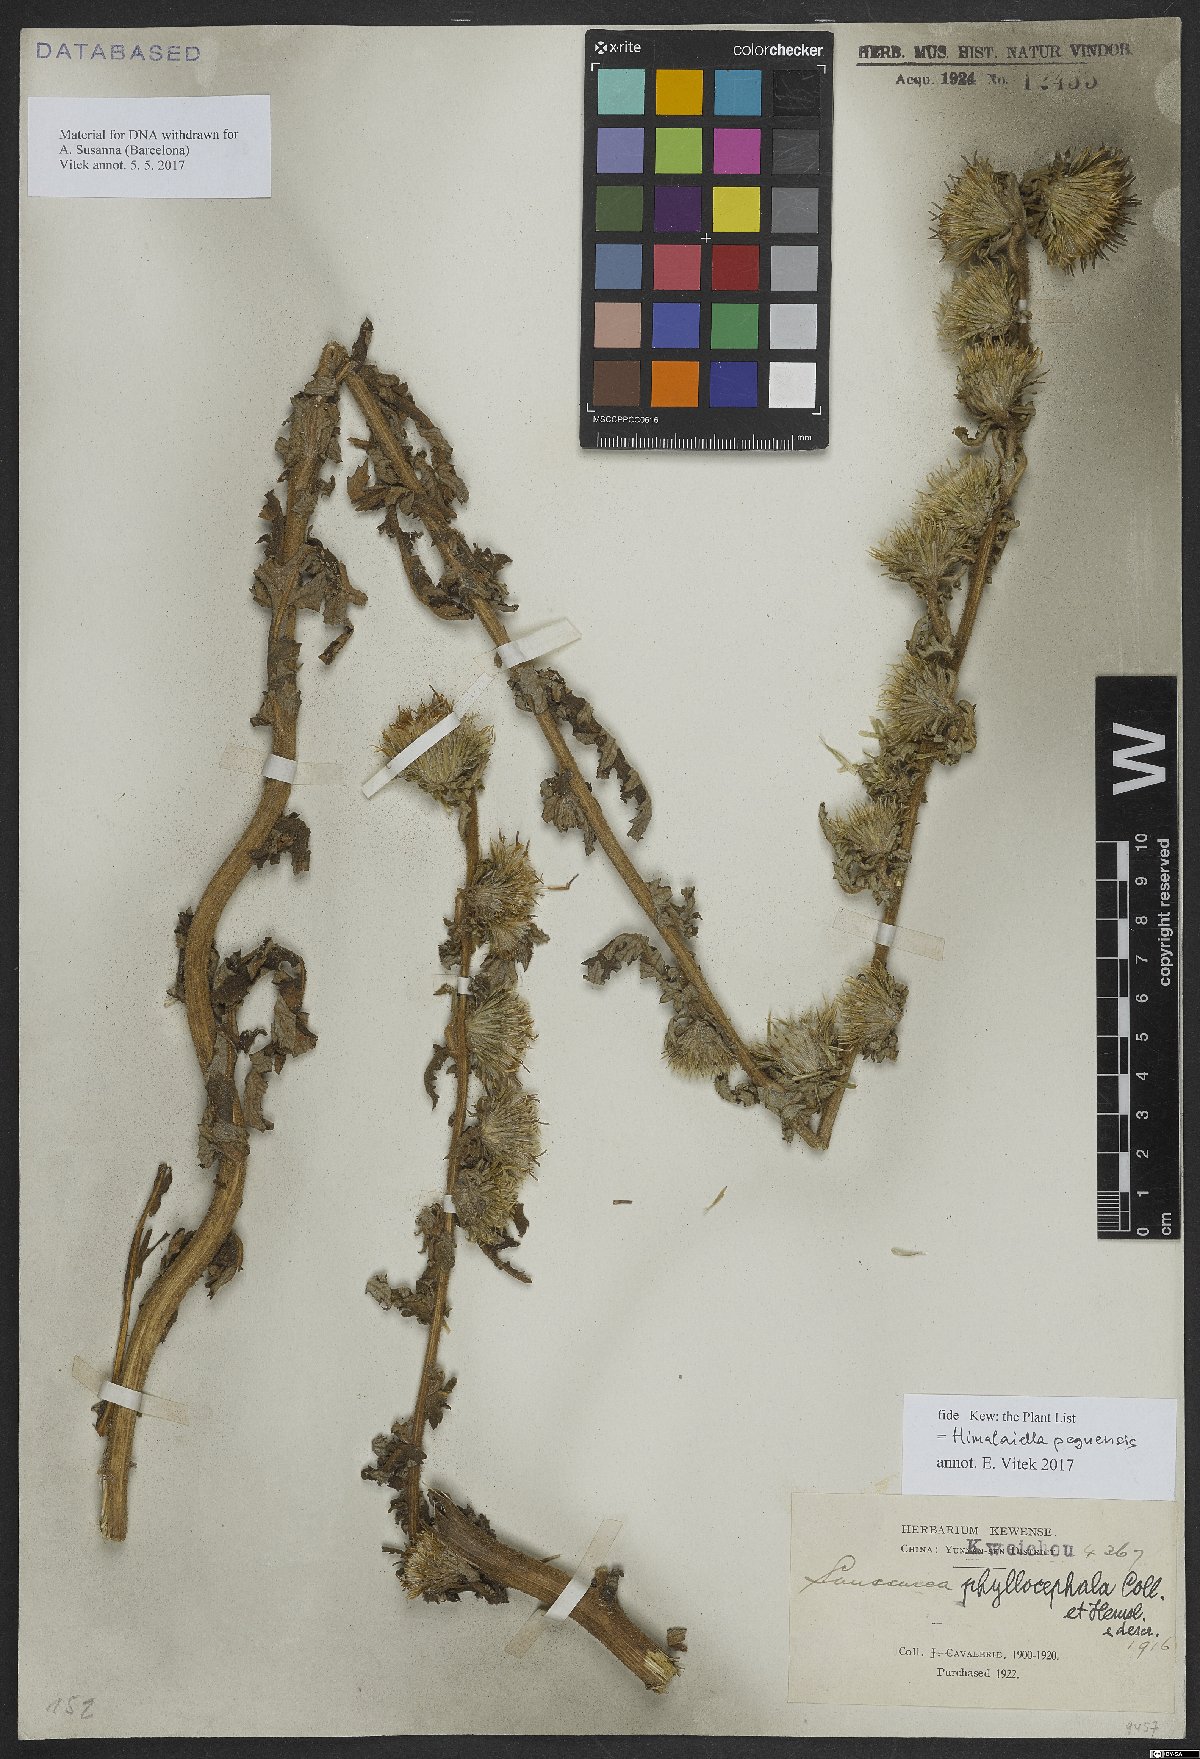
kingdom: Plantae
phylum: Tracheophyta
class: Magnoliopsida
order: Asterales
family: Asteraceae
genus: Jurinea
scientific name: Jurinea peguensis
